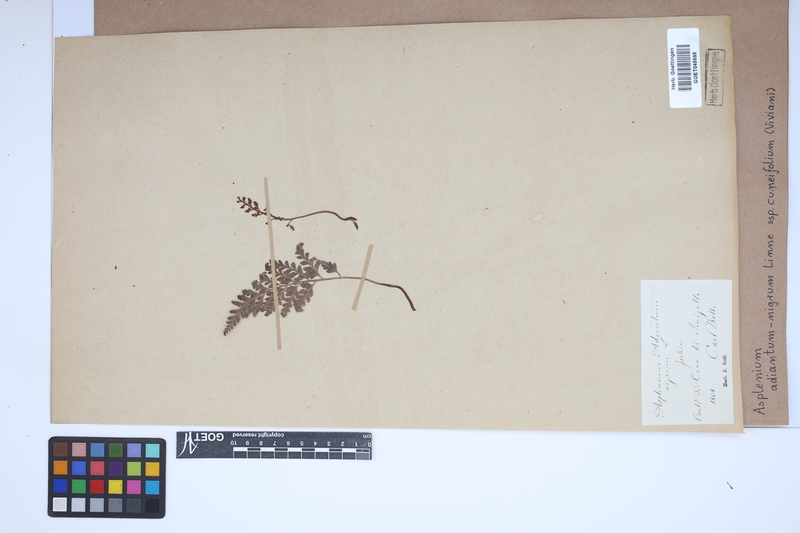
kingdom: Plantae
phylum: Tracheophyta
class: Polypodiopsida
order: Polypodiales
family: Aspleniaceae
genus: Asplenium
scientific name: Asplenium cuneifolium
